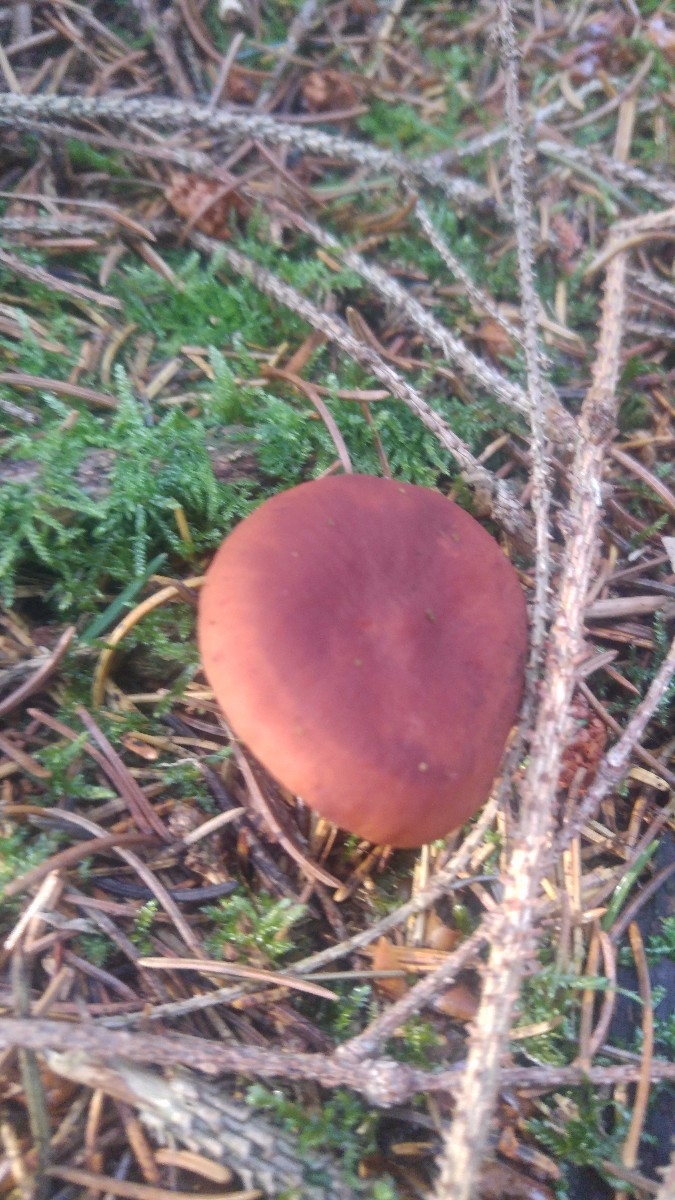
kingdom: Fungi
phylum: Basidiomycota
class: Agaricomycetes
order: Russulales
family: Russulaceae
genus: Lactarius
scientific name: Lactarius camphoratus
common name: kamfer-mælkehat
